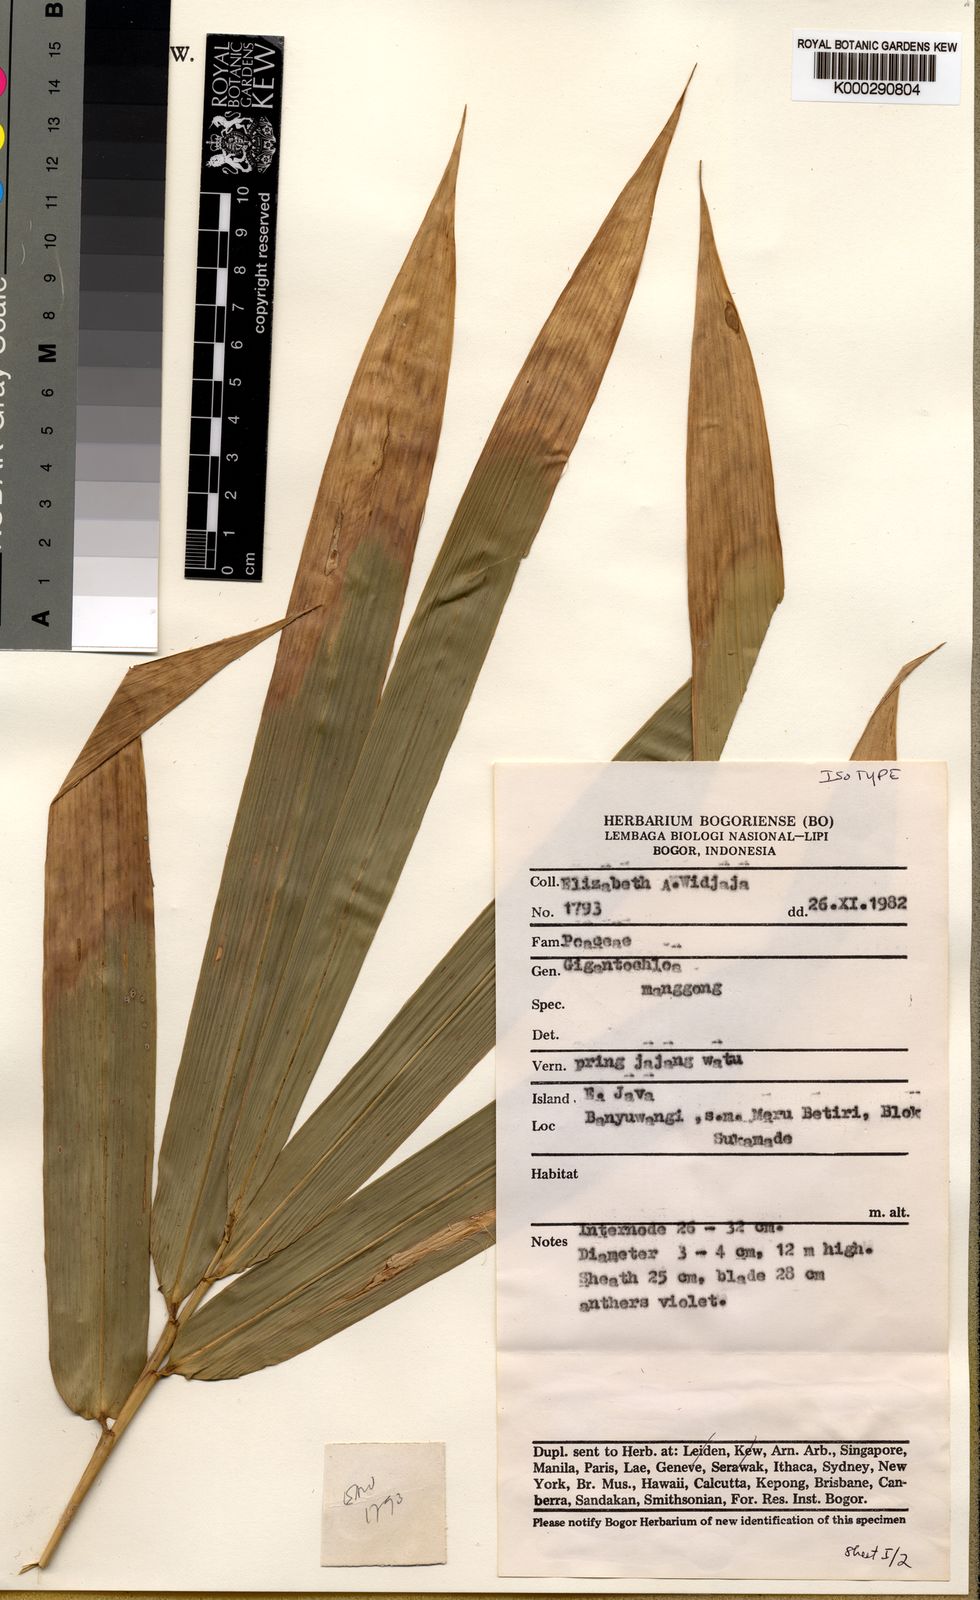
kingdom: Plantae
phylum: Tracheophyta
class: Liliopsida
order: Poales
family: Poaceae
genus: Gigantochloa
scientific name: Gigantochloa manggong
